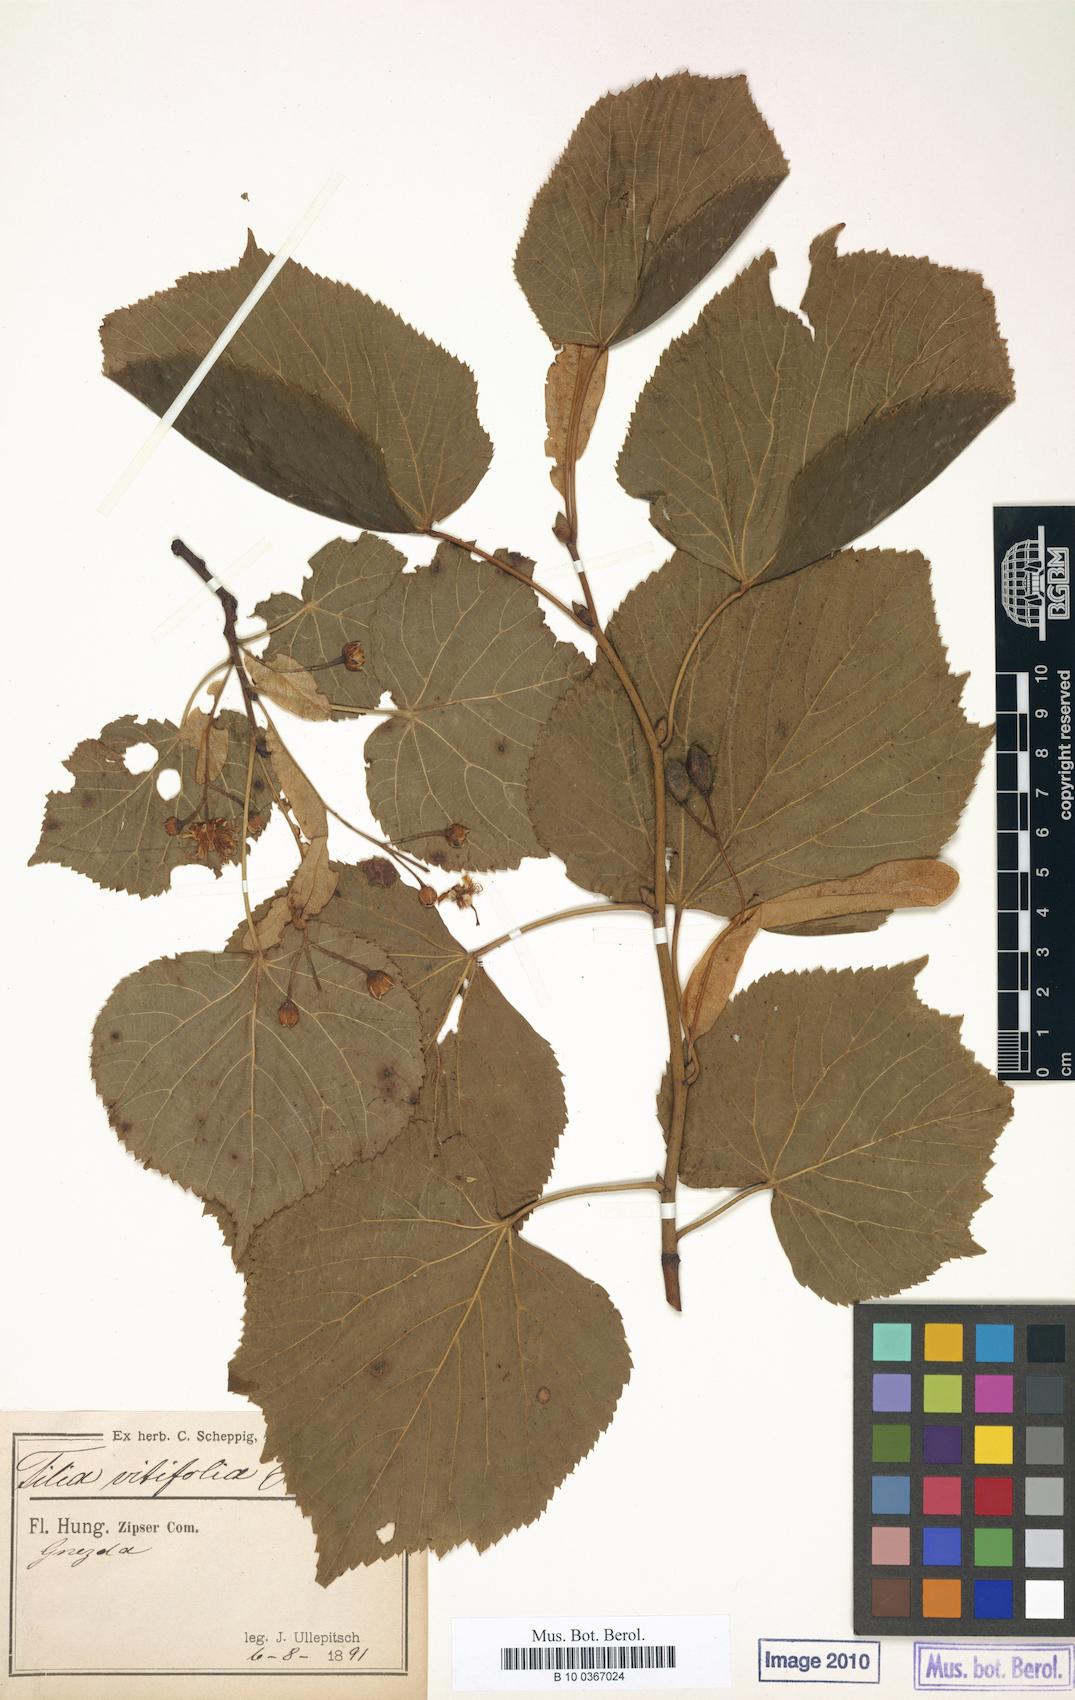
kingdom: Plantae
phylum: Tracheophyta
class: Magnoliopsida
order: Malvales
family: Malvaceae
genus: Tilia
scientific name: Tilia platyphyllos
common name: Large-leaved lime
